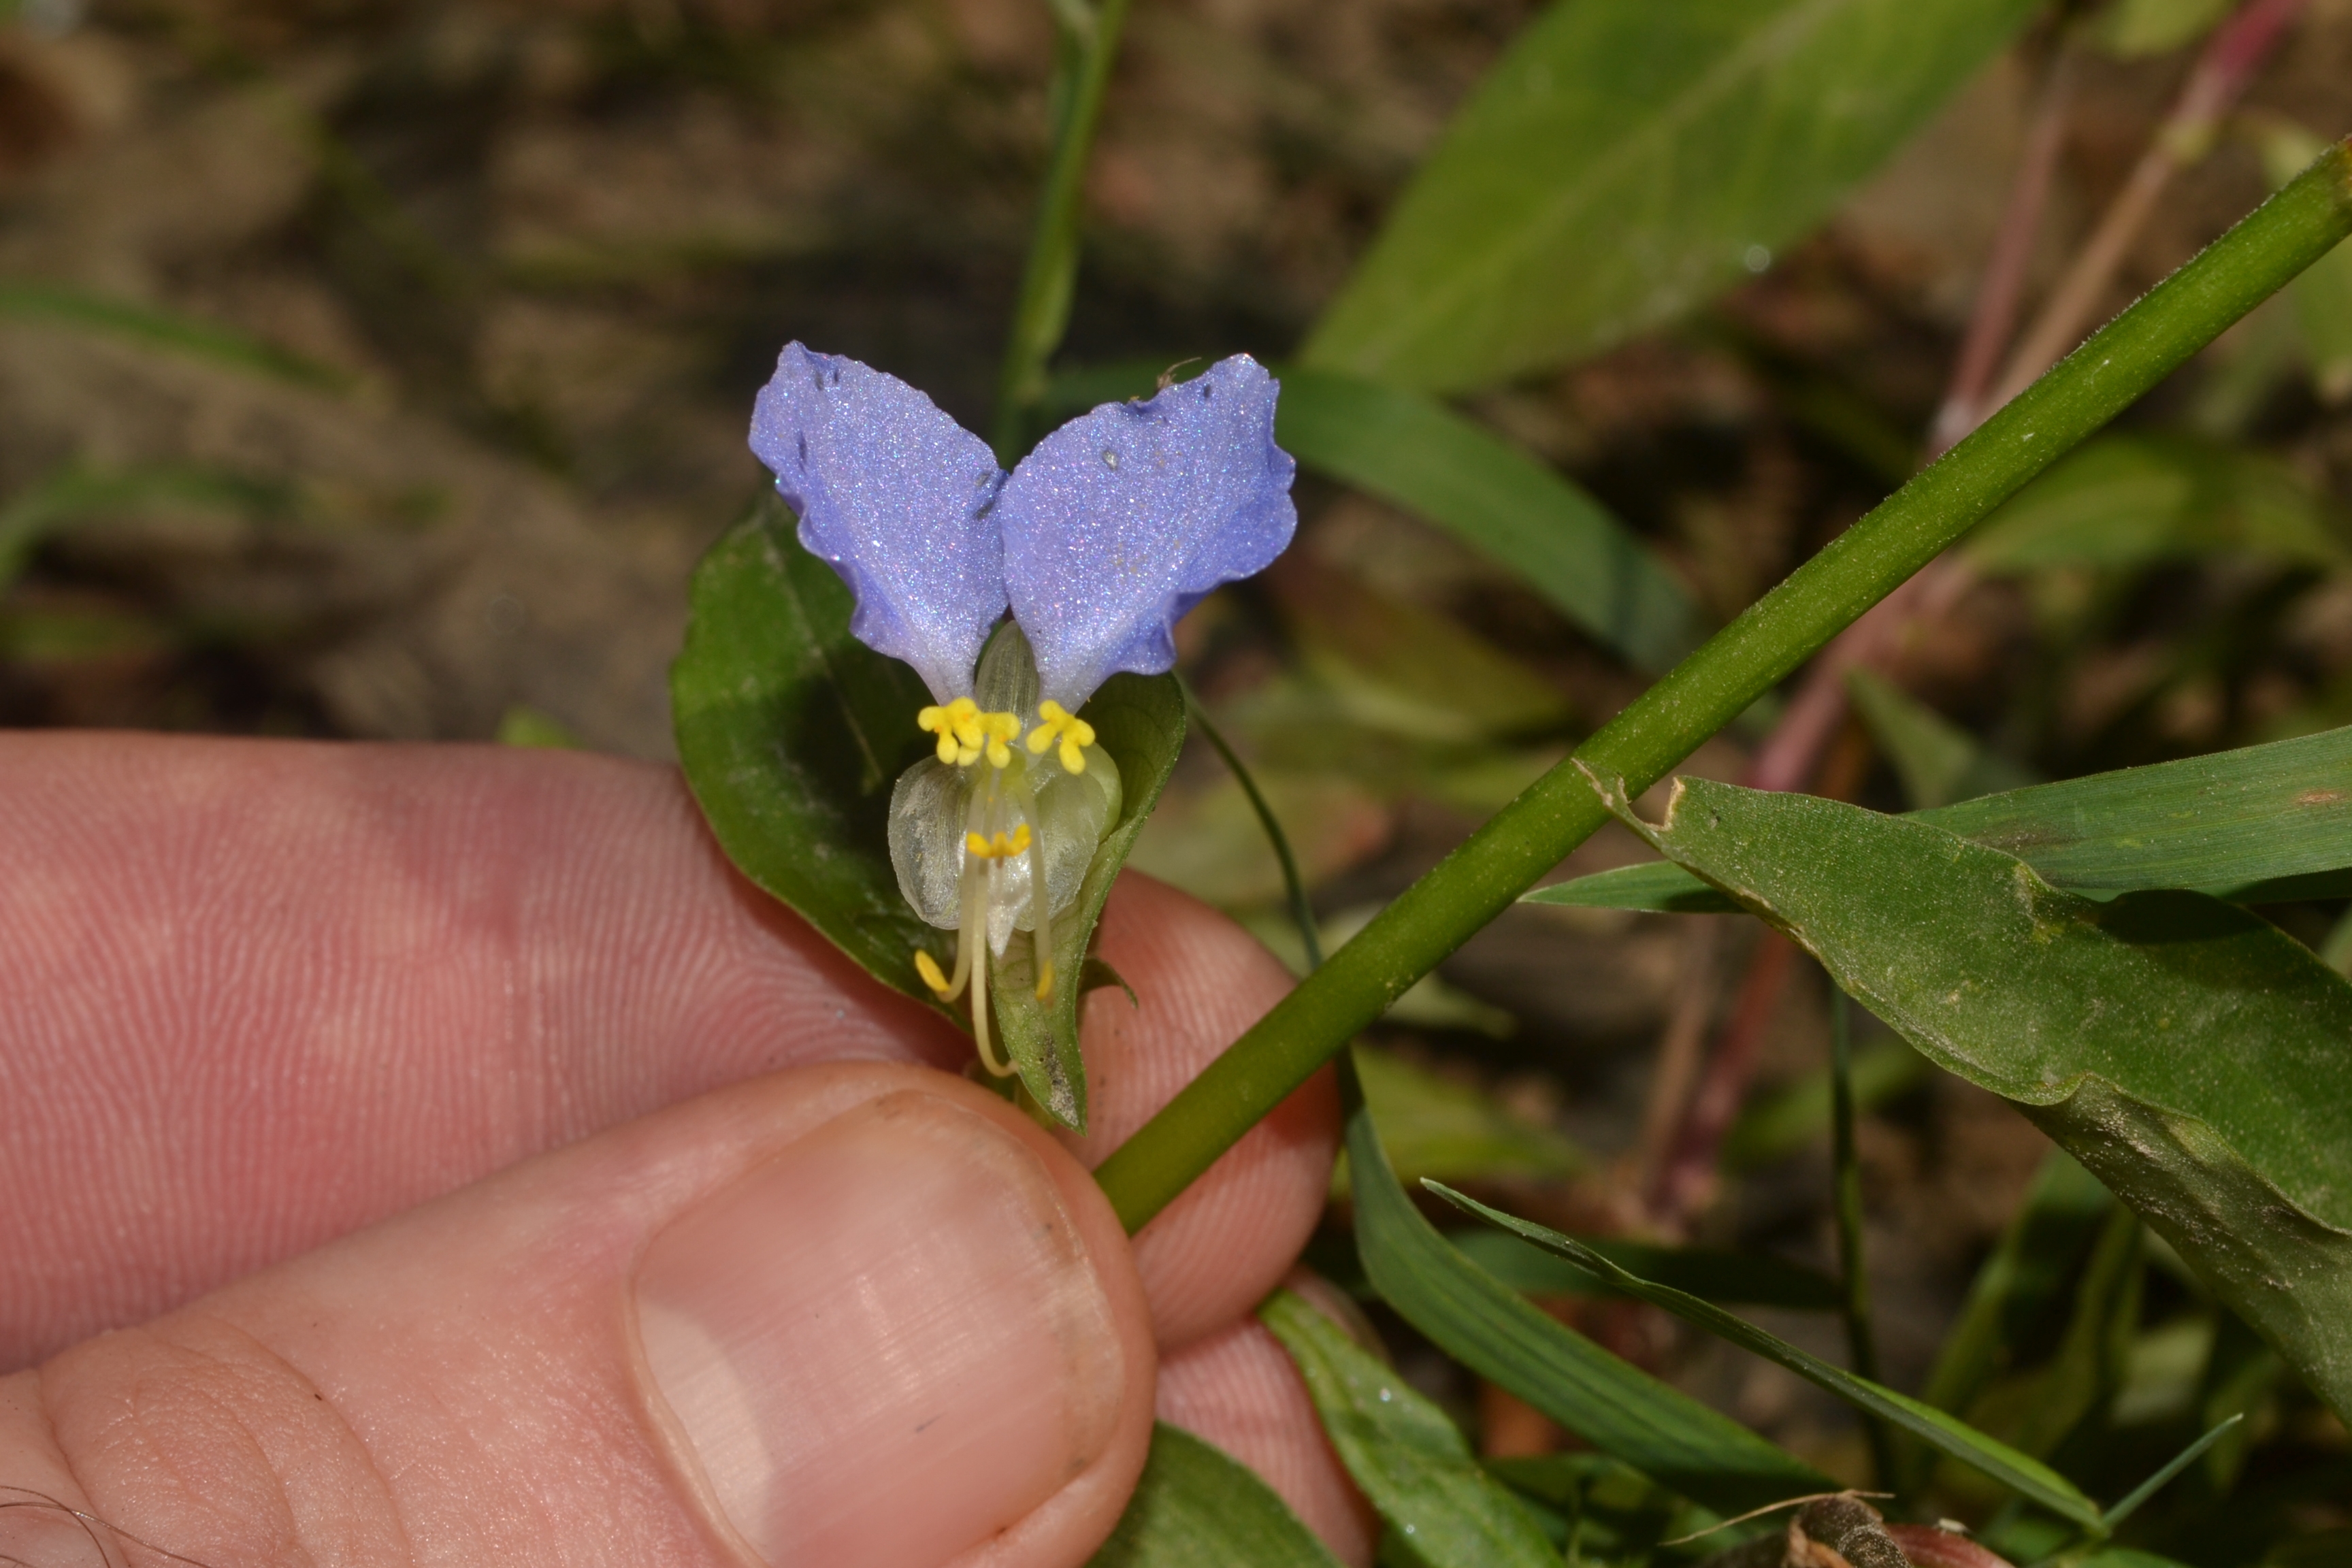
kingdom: Plantae
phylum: Tracheophyta
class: Liliopsida
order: Commelinales
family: Commelinaceae
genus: Commelina
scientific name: Commelina communis
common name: Asiatic Dayflower
